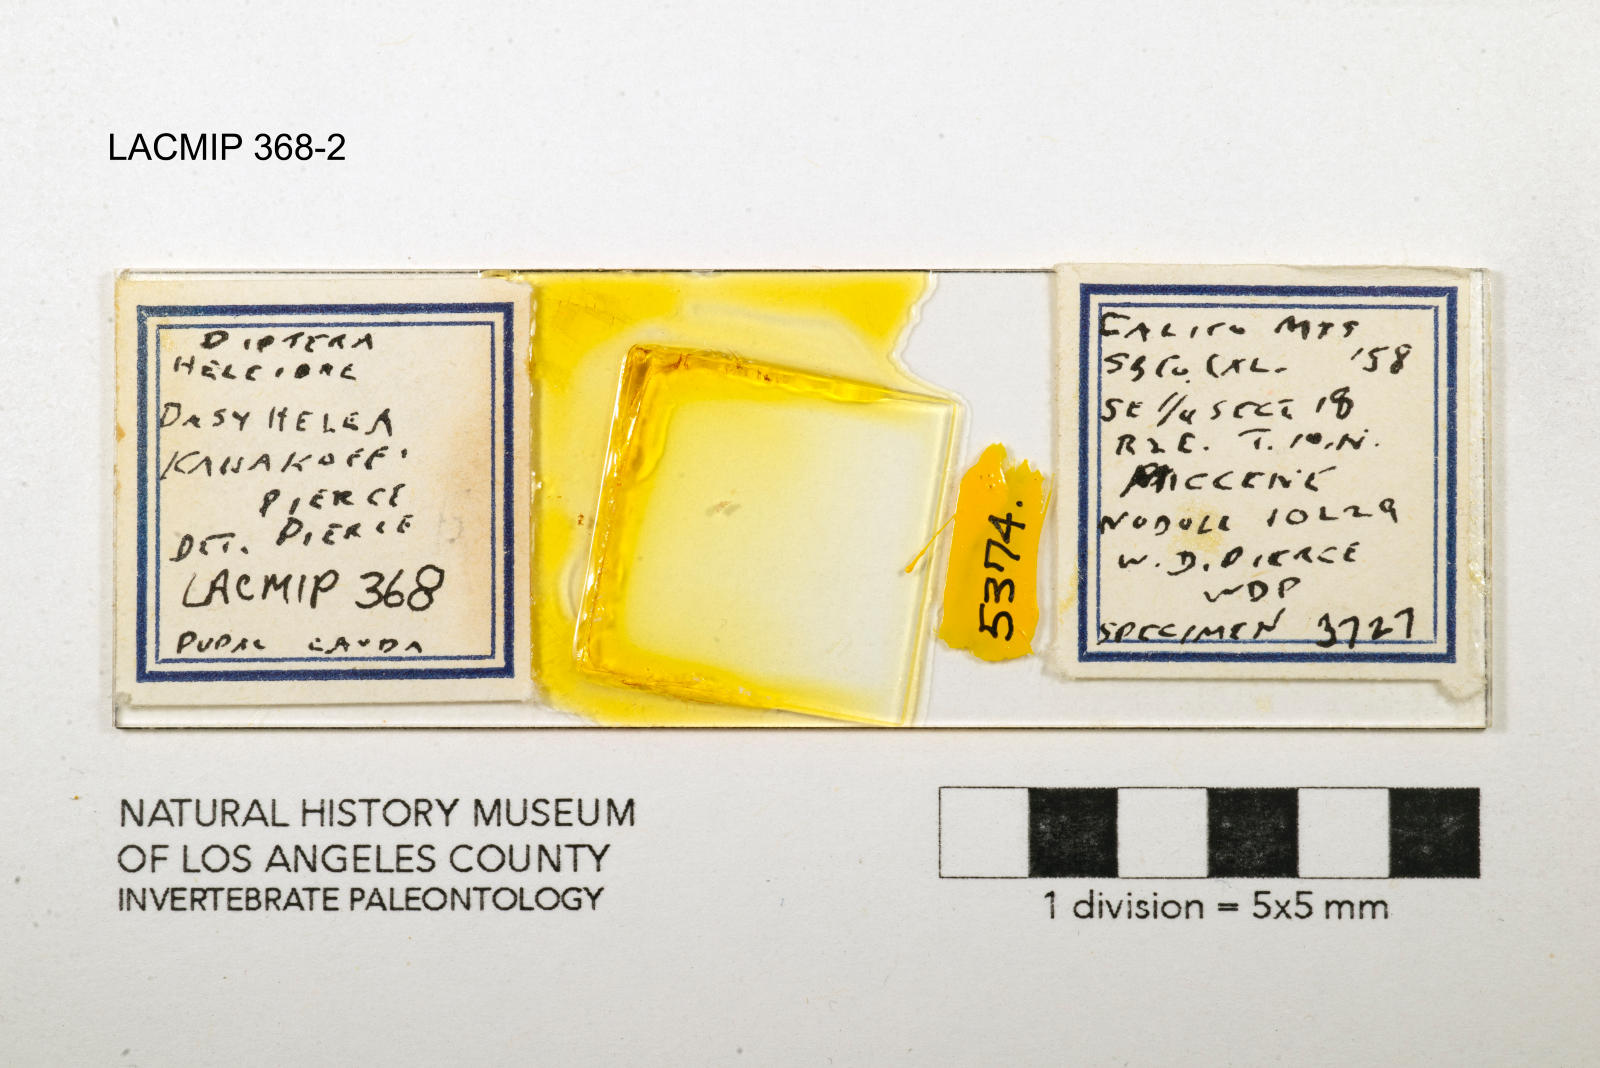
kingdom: Animalia
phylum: Arthropoda
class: Insecta
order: Diptera
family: Ceratopogonidae
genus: Dasyhelea
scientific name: Dasyhelea kanakoffi
